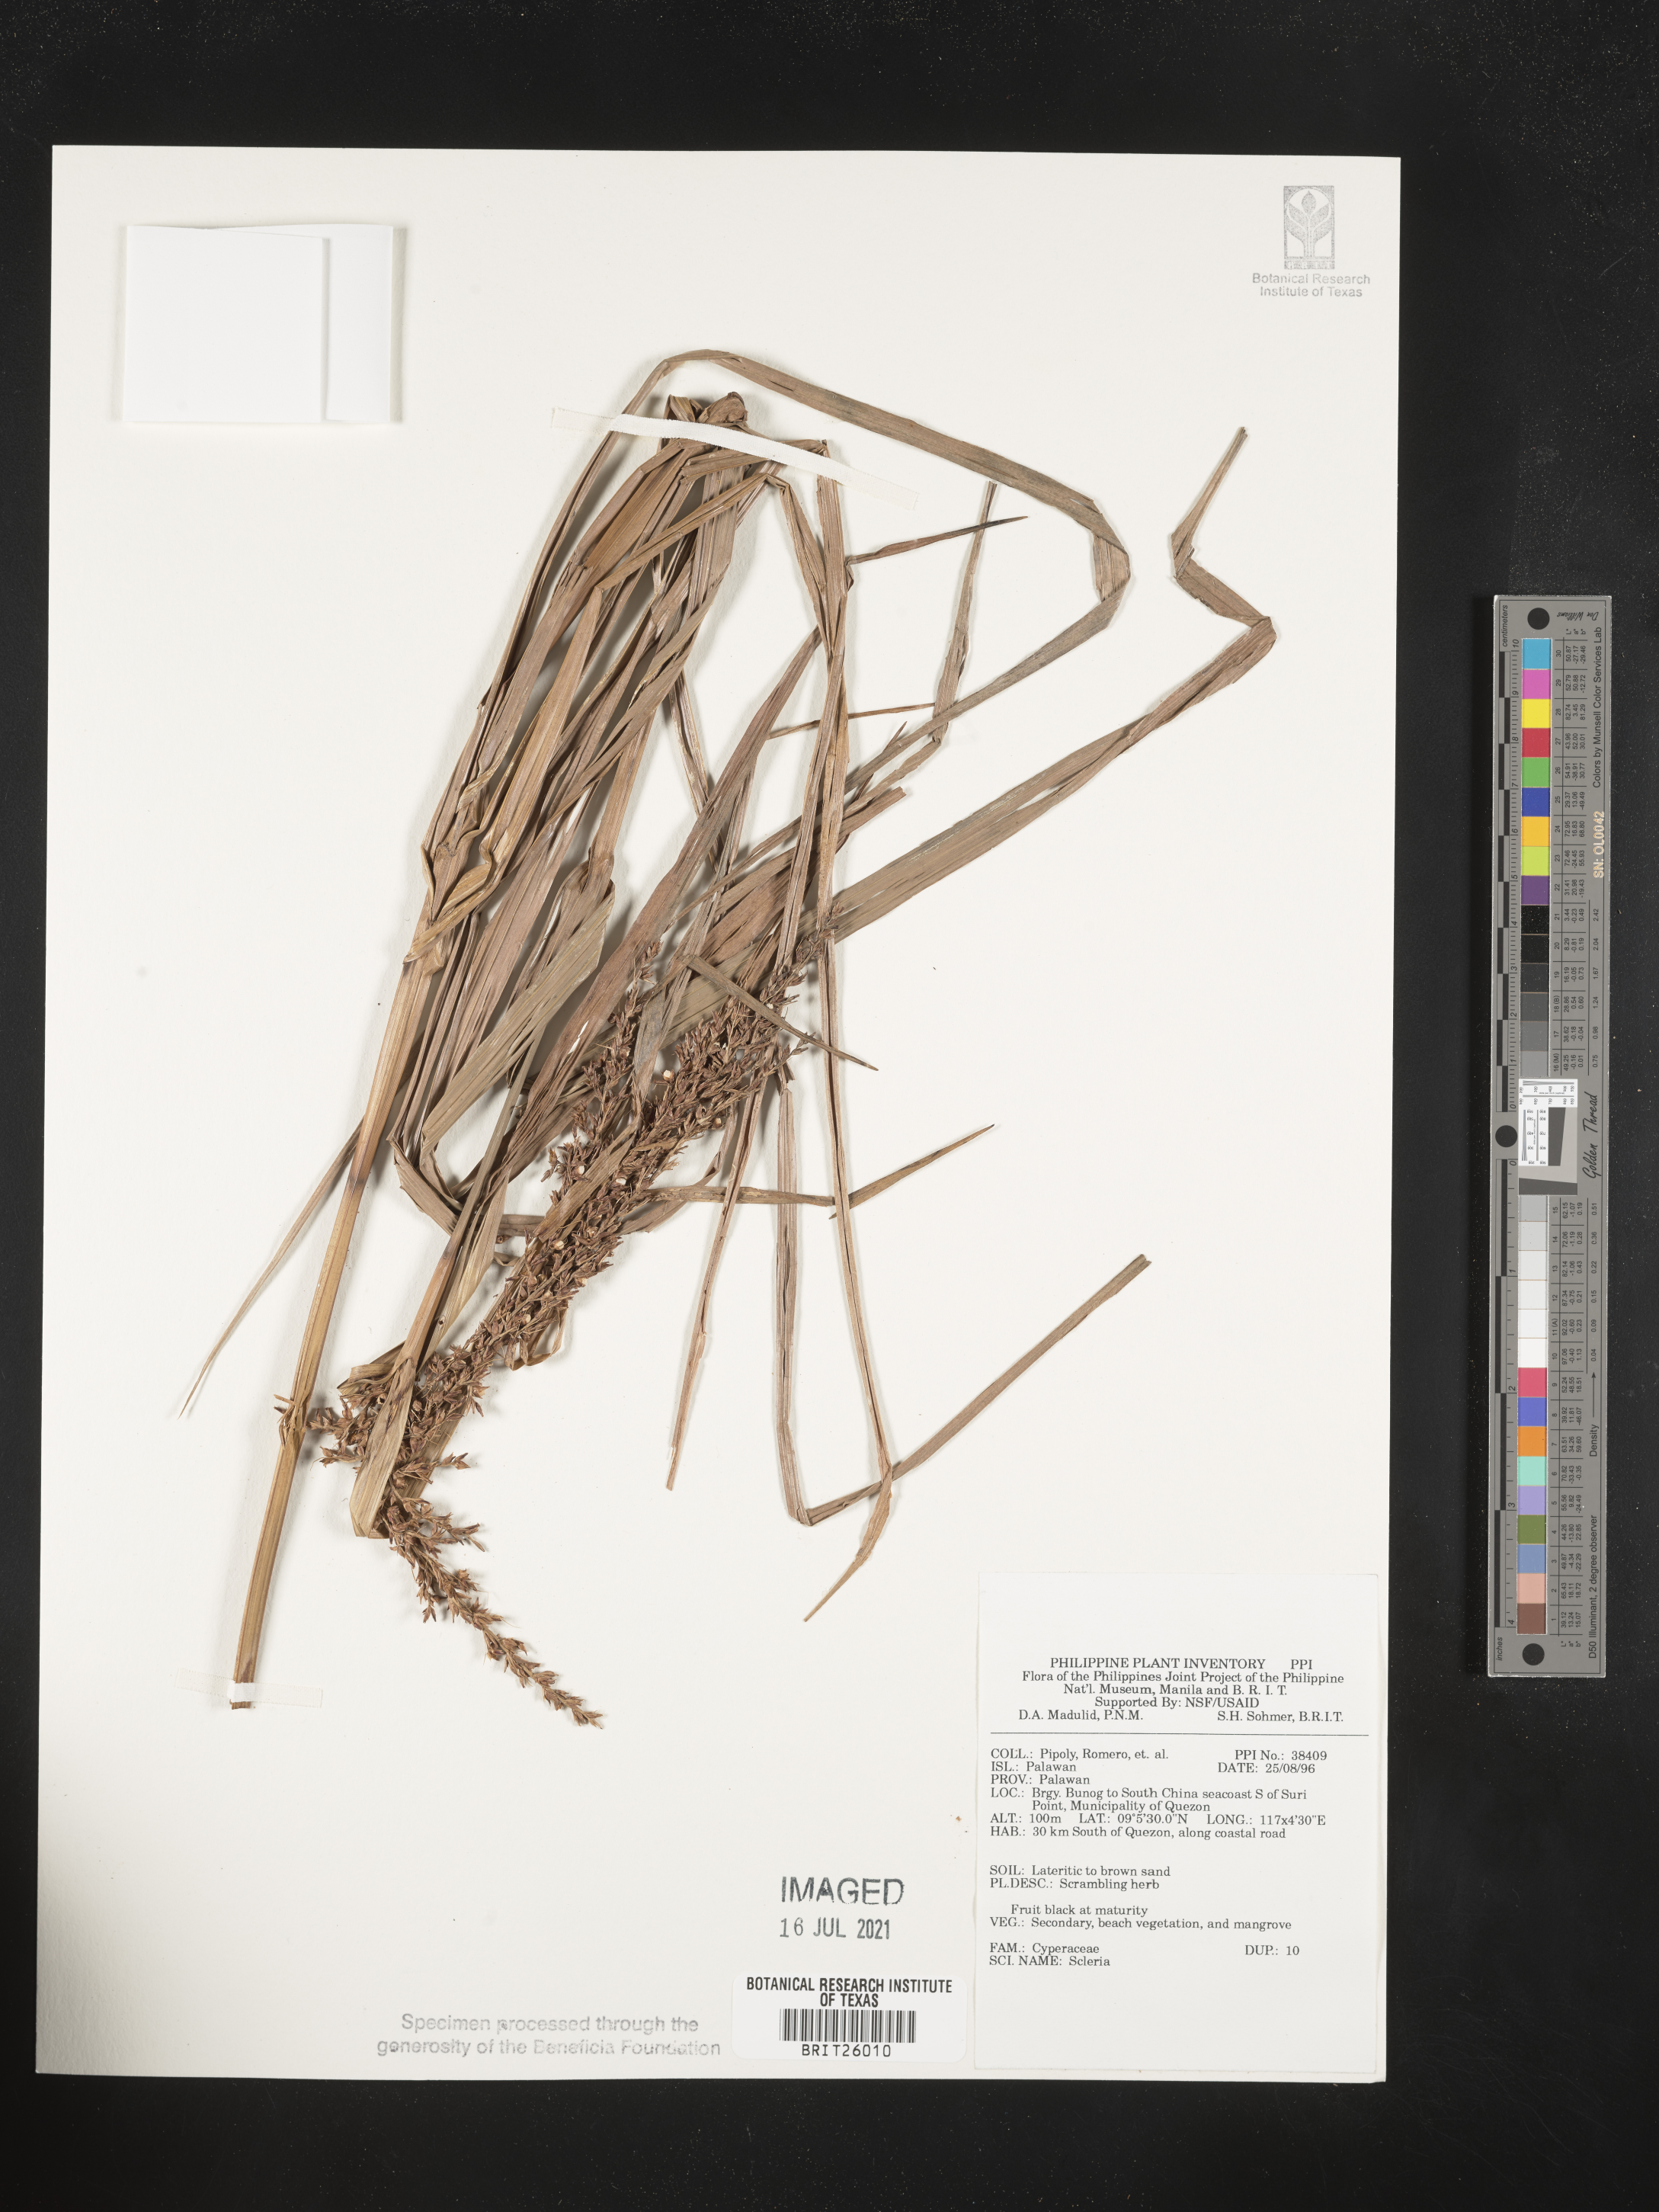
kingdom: Plantae
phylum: Tracheophyta
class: Liliopsida
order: Poales
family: Cyperaceae
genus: Scleria
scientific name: Scleria
